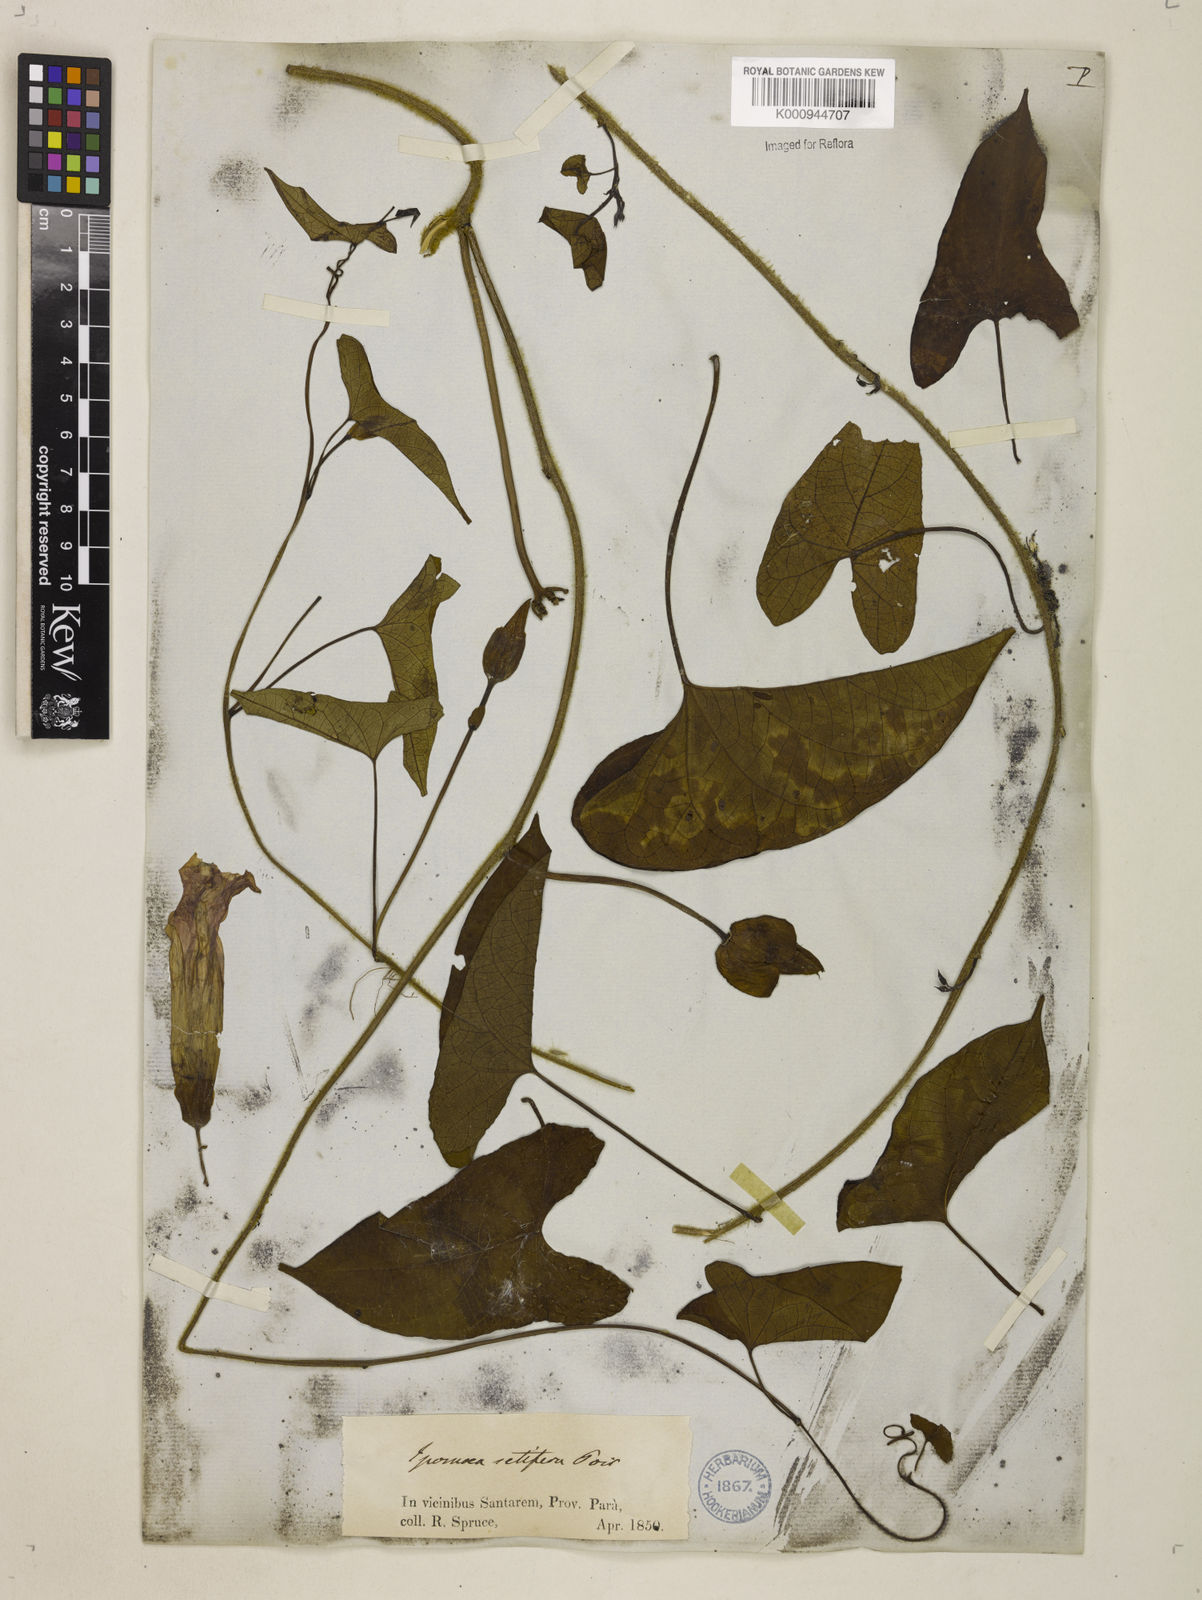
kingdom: Plantae
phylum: Tracheophyta
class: Magnoliopsida
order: Solanales
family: Convolvulaceae
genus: Ipomoea
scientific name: Ipomoea setifera
